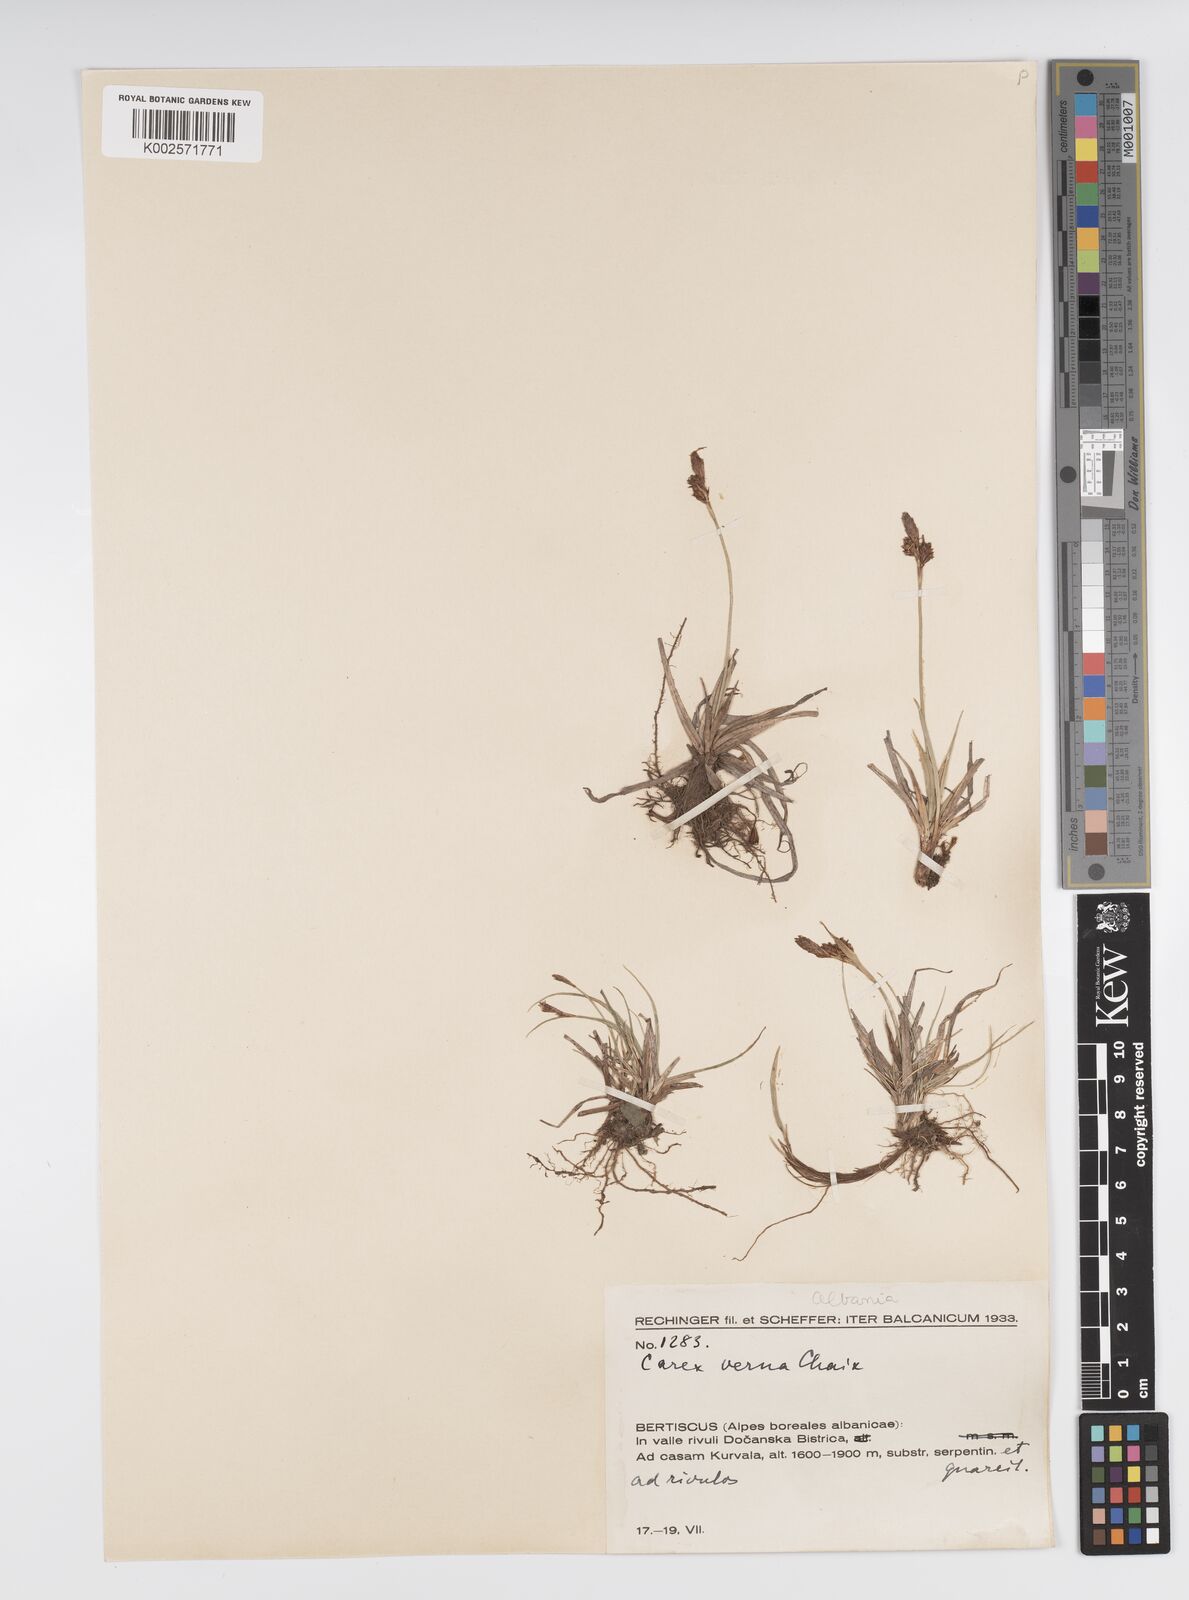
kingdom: Plantae
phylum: Tracheophyta
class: Liliopsida
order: Poales
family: Cyperaceae
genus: Carex
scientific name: Carex caryophyllea
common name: Spring sedge
